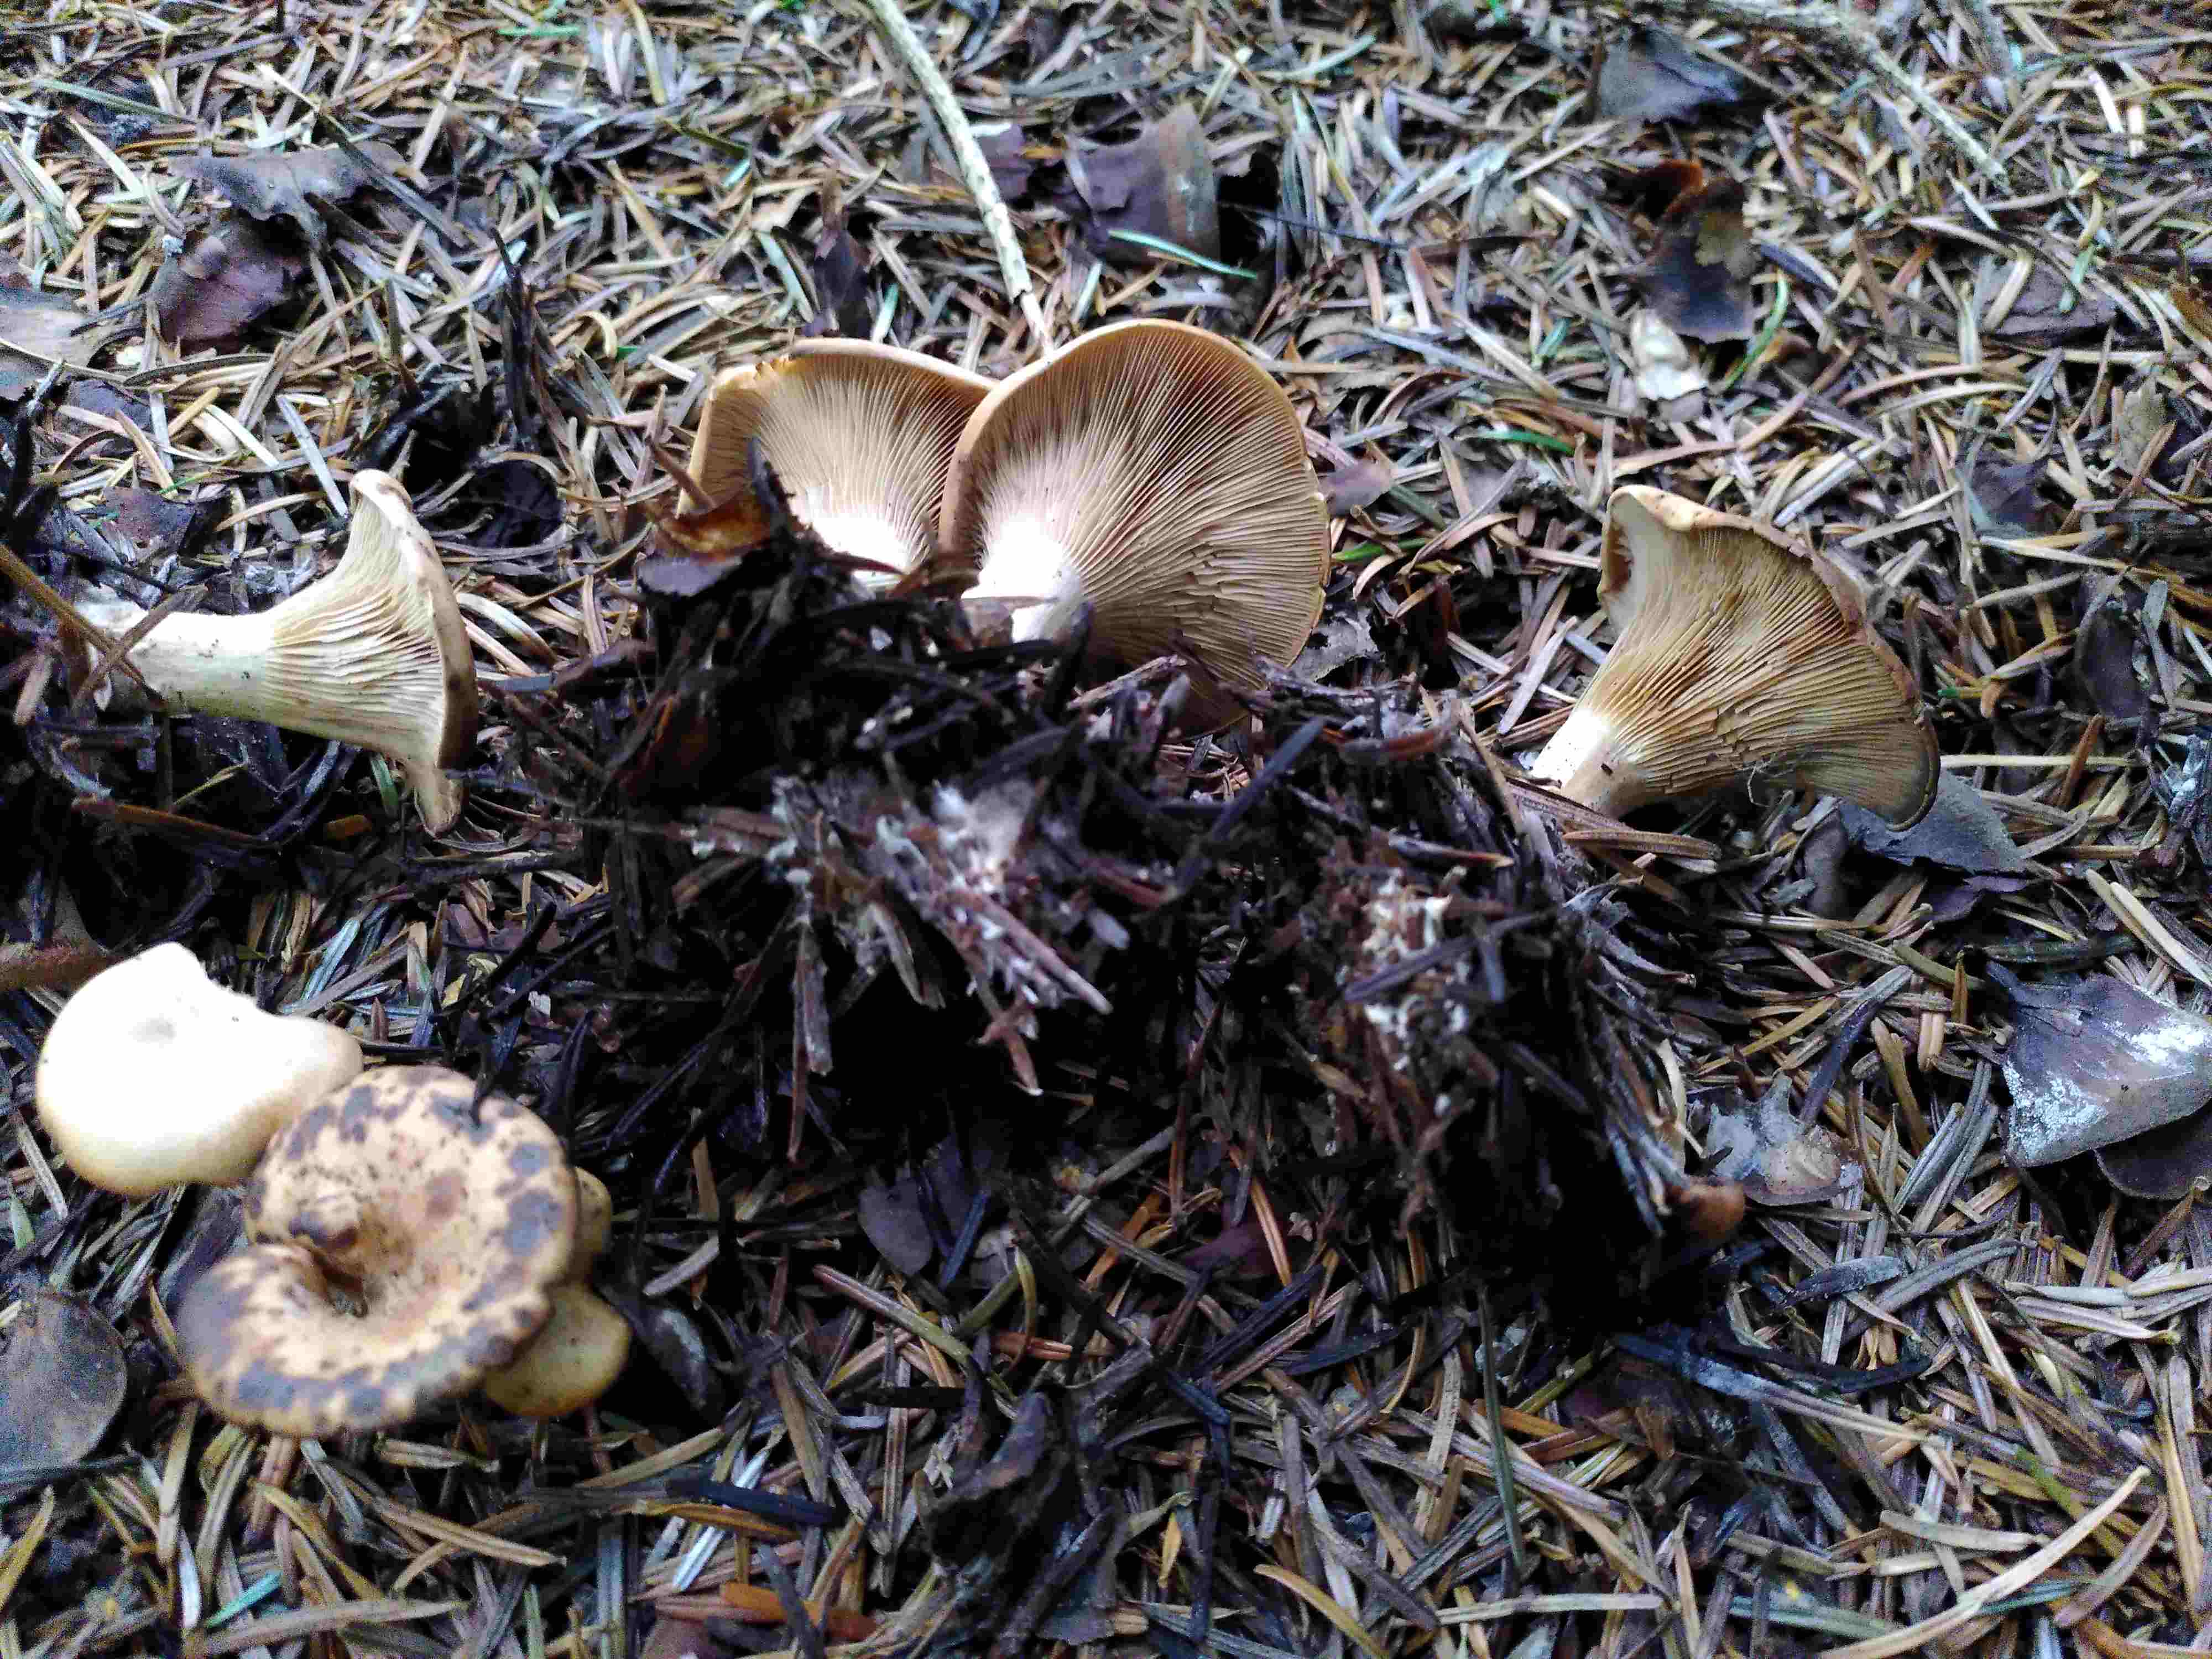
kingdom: Fungi
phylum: Basidiomycota
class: Agaricomycetes
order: Agaricales
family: Tricholomataceae
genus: Paralepista
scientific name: Paralepista
